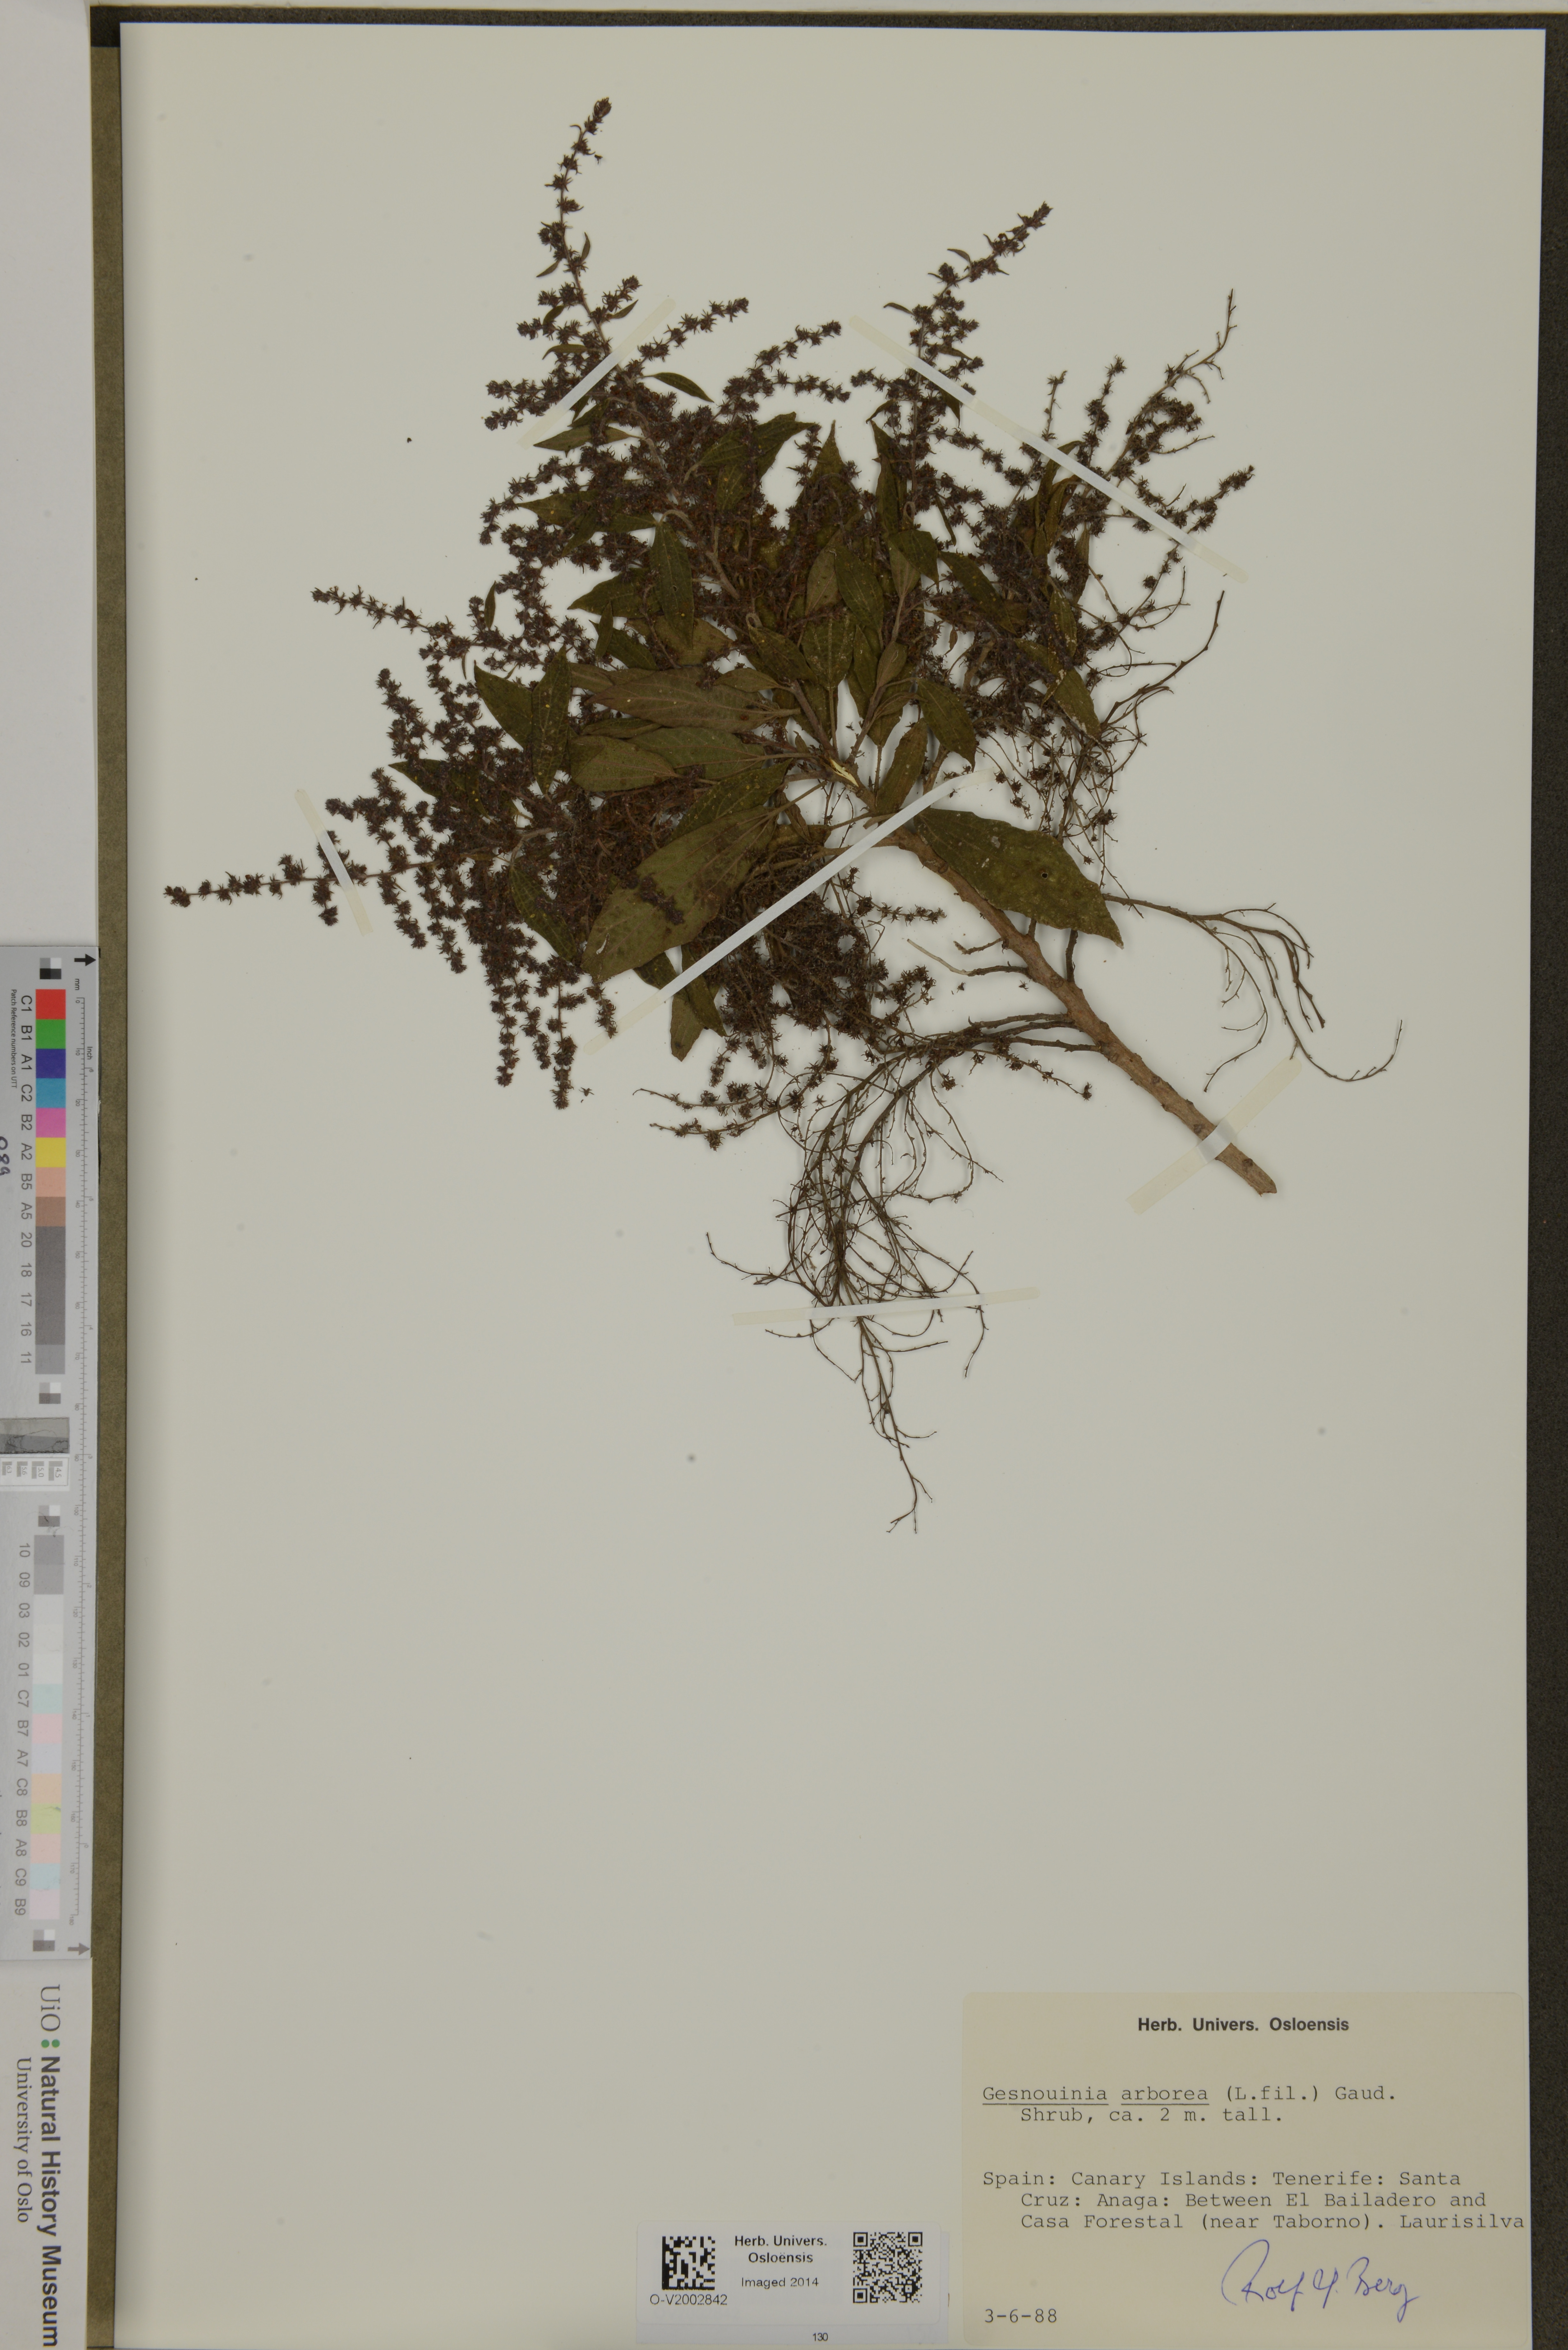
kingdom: Plantae
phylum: Tracheophyta
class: Magnoliopsida
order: Rosales
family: Urticaceae
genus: Gesnouinia
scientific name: Gesnouinia arborea
